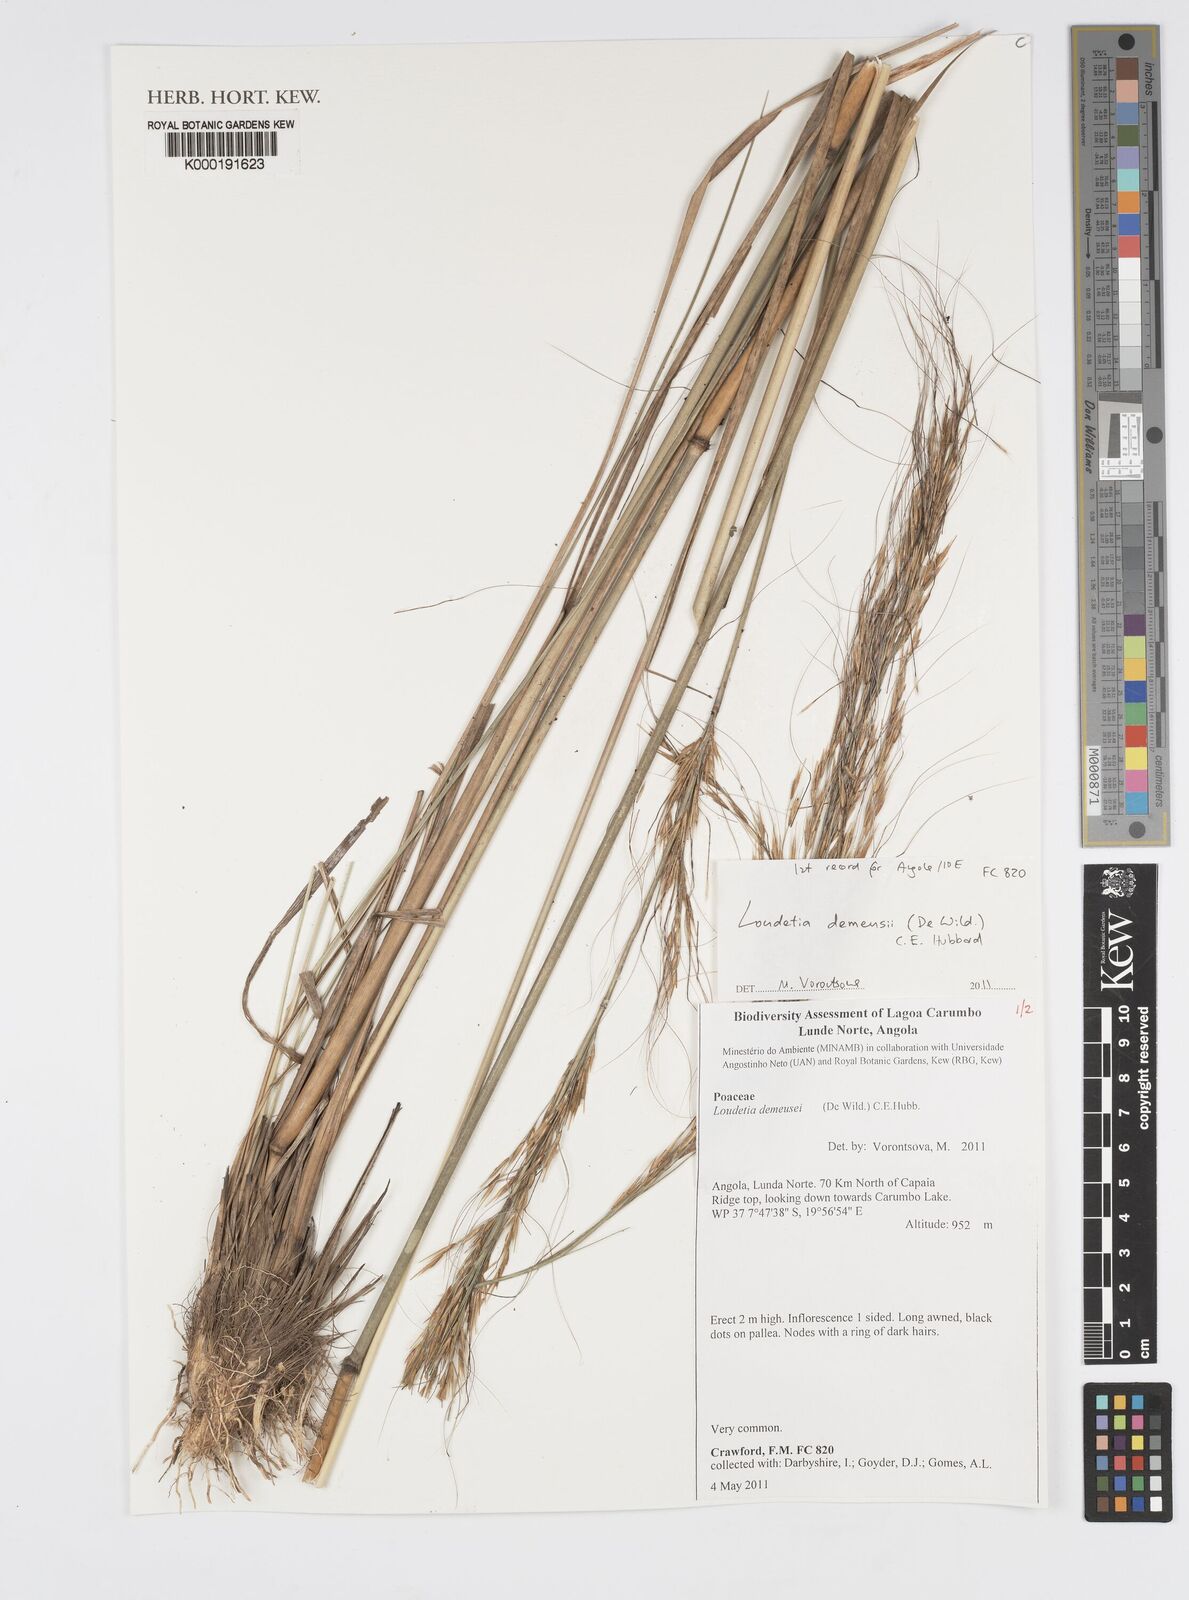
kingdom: Plantae
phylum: Tracheophyta
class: Liliopsida
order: Poales
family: Poaceae
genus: Loudetia
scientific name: Loudetia demeusei
